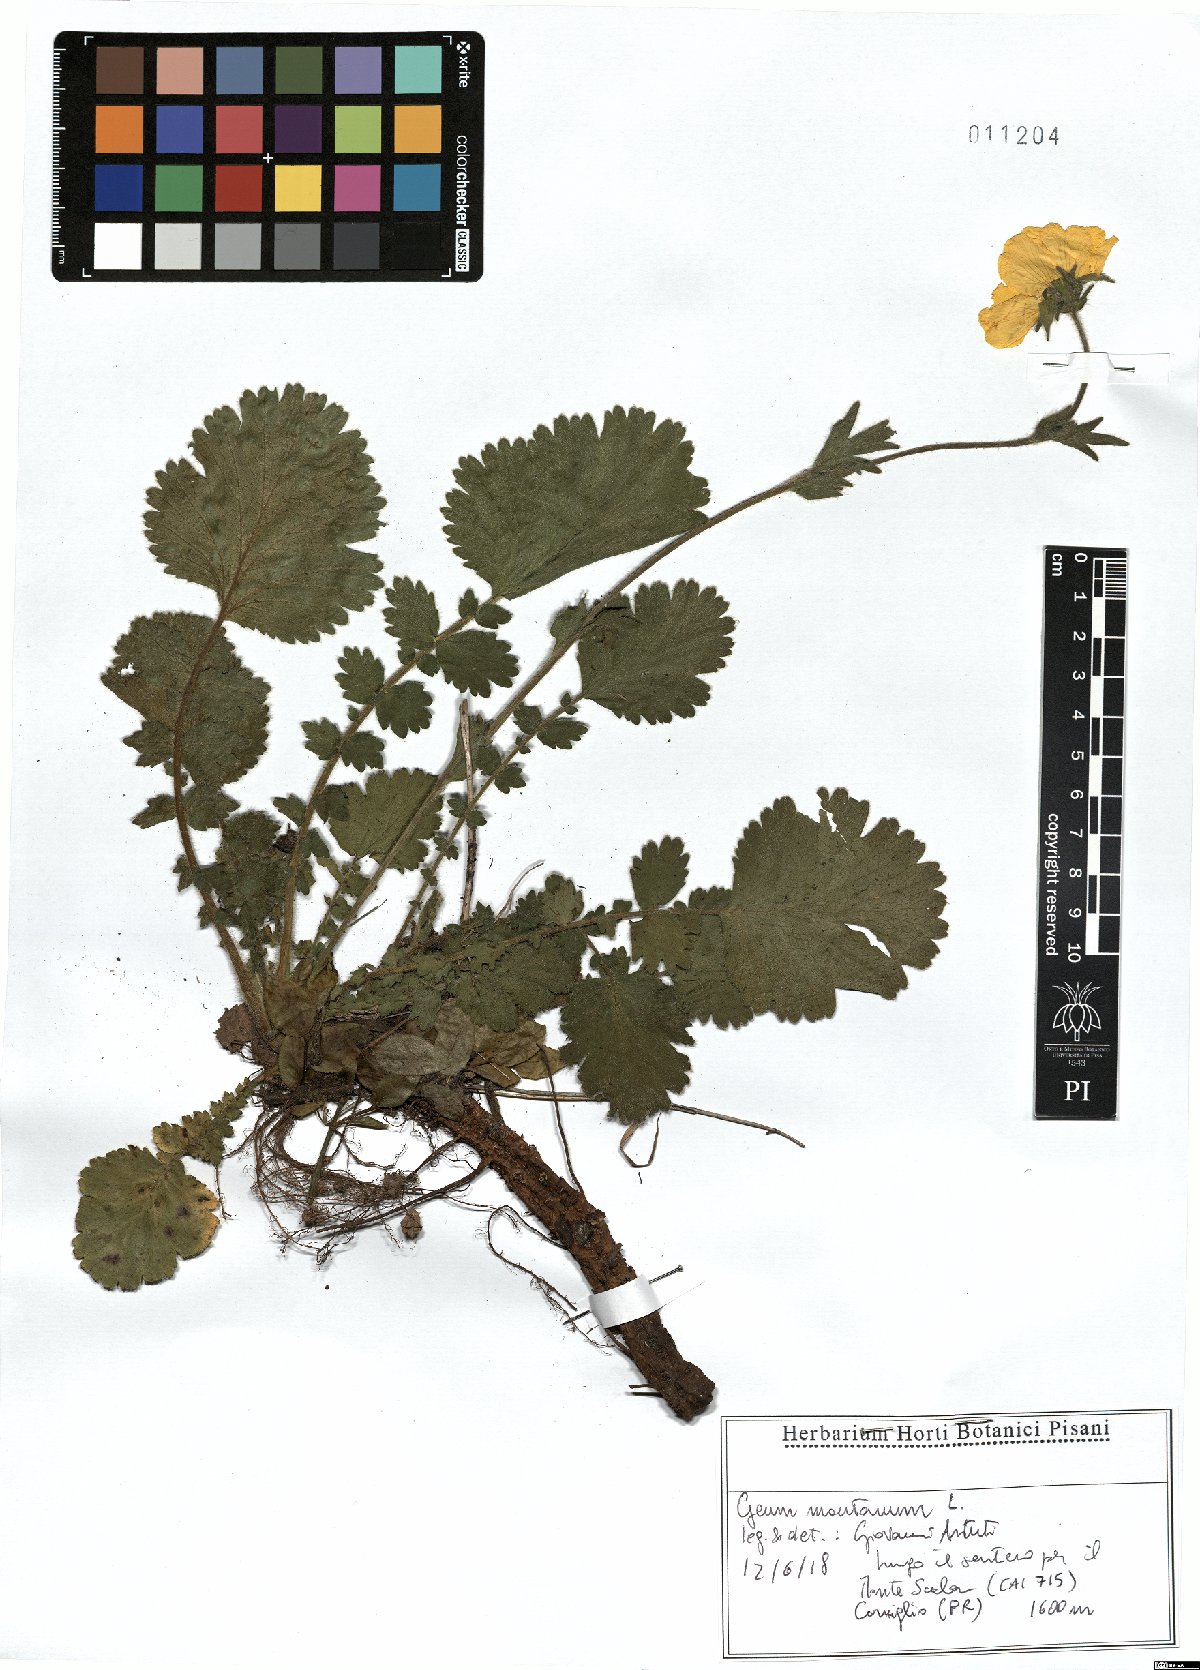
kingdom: Plantae
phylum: Tracheophyta
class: Magnoliopsida
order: Rosales
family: Rosaceae
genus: Geum
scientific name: Geum montanum
